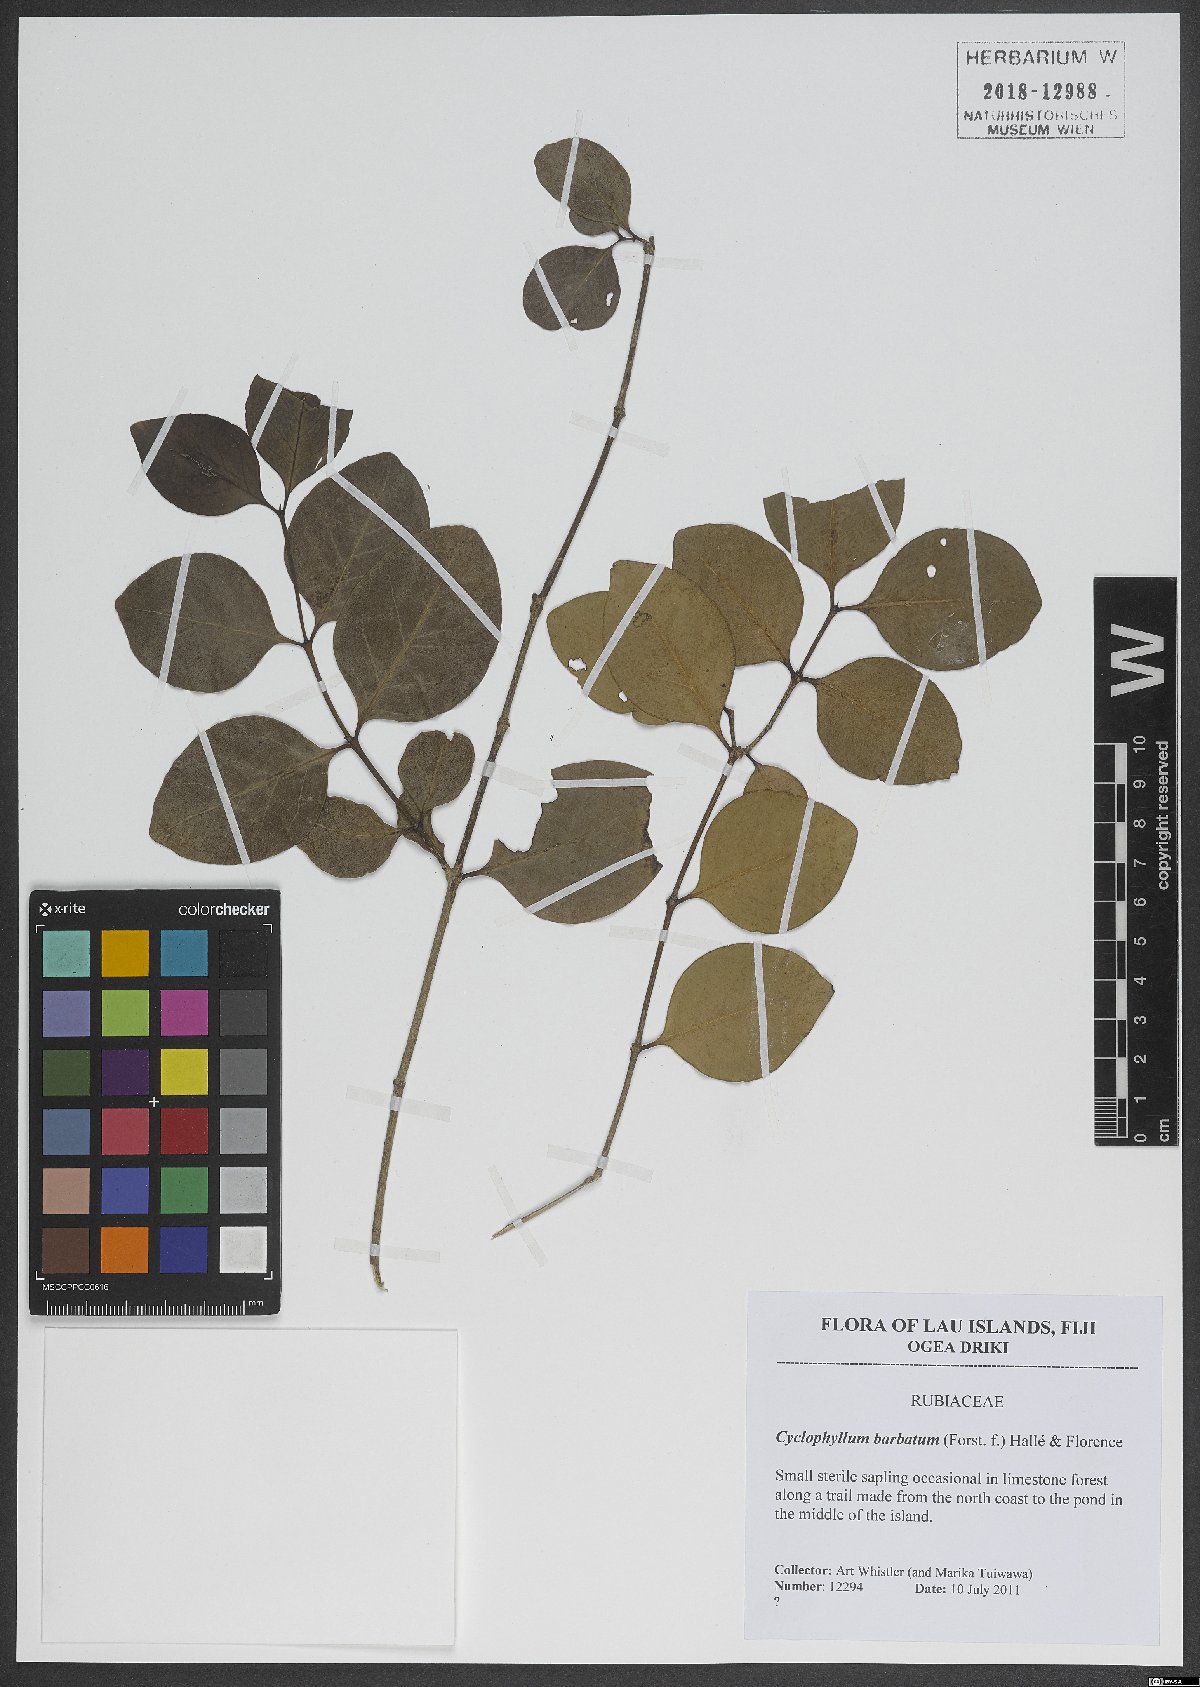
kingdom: Plantae
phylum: Tracheophyta
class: Magnoliopsida
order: Gentianales
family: Rubiaceae
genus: Cyclophyllum
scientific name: Cyclophyllum barbatum
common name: Cyclophyllum
